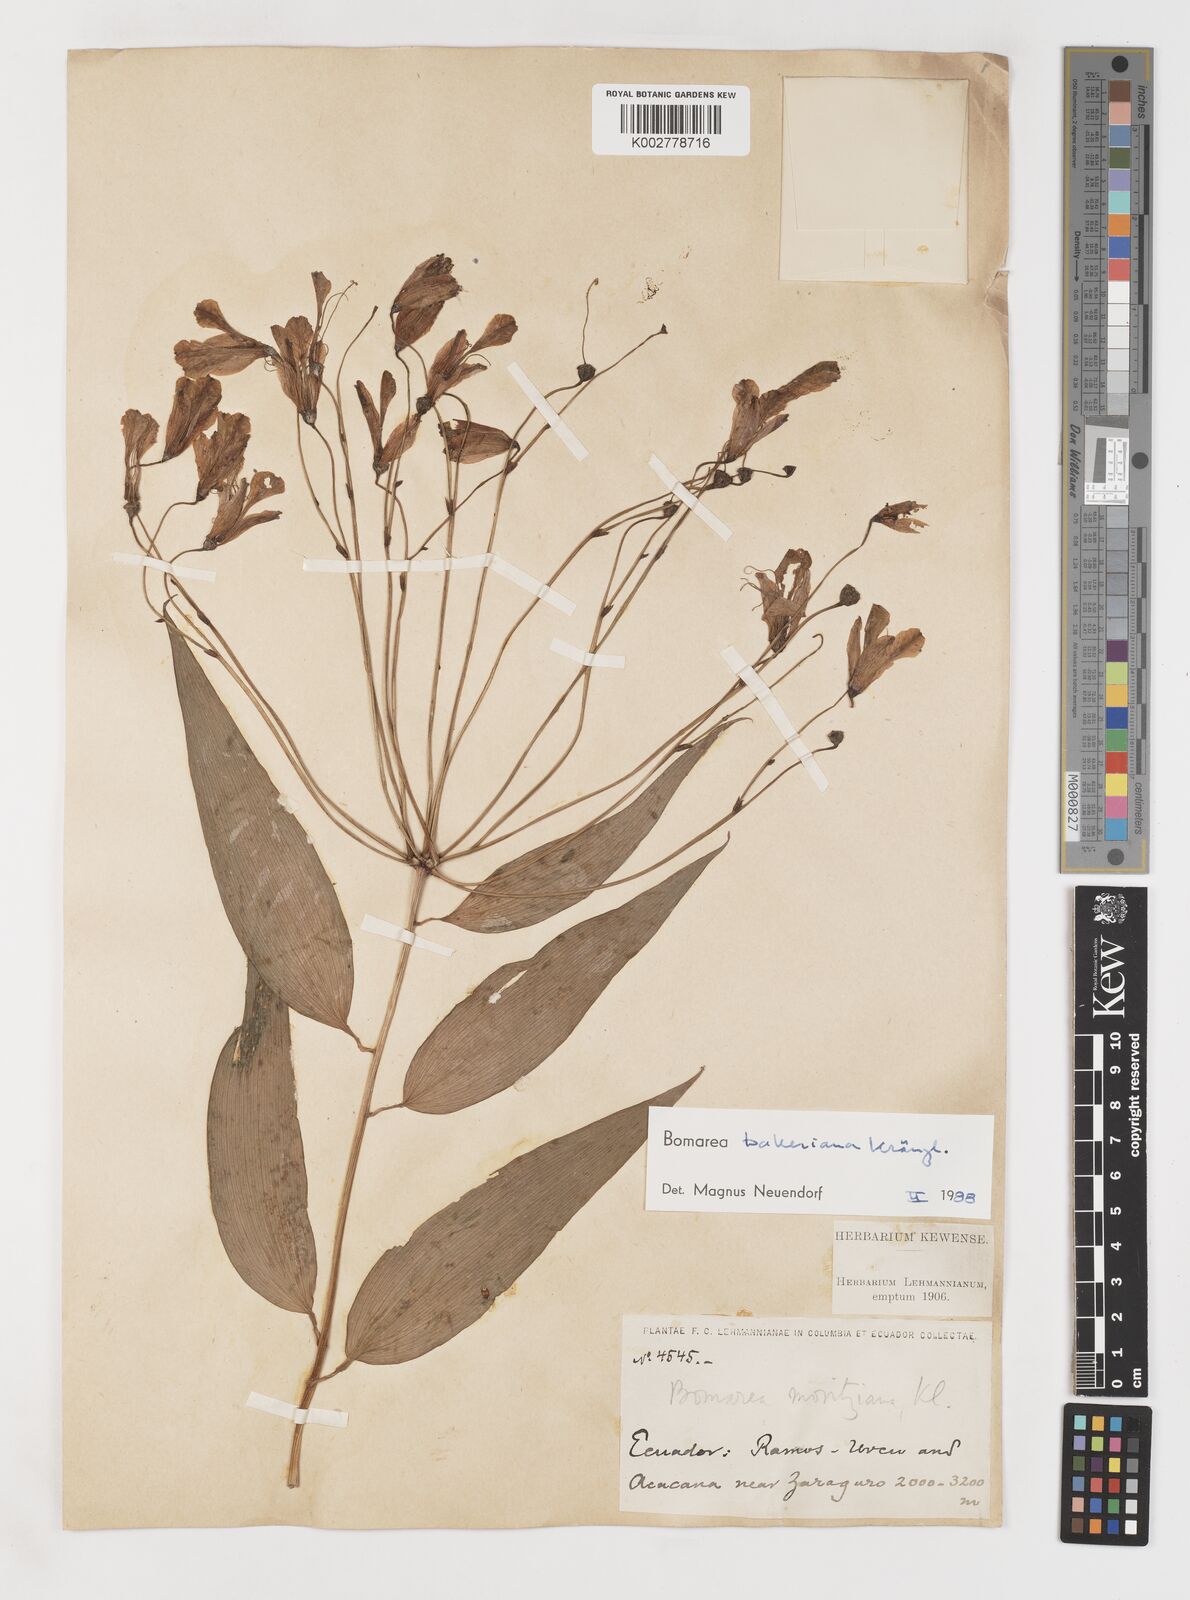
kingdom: Plantae
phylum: Tracheophyta
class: Liliopsida
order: Liliales
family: Alstroemeriaceae
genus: Bomarea
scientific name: Bomarea edulis
